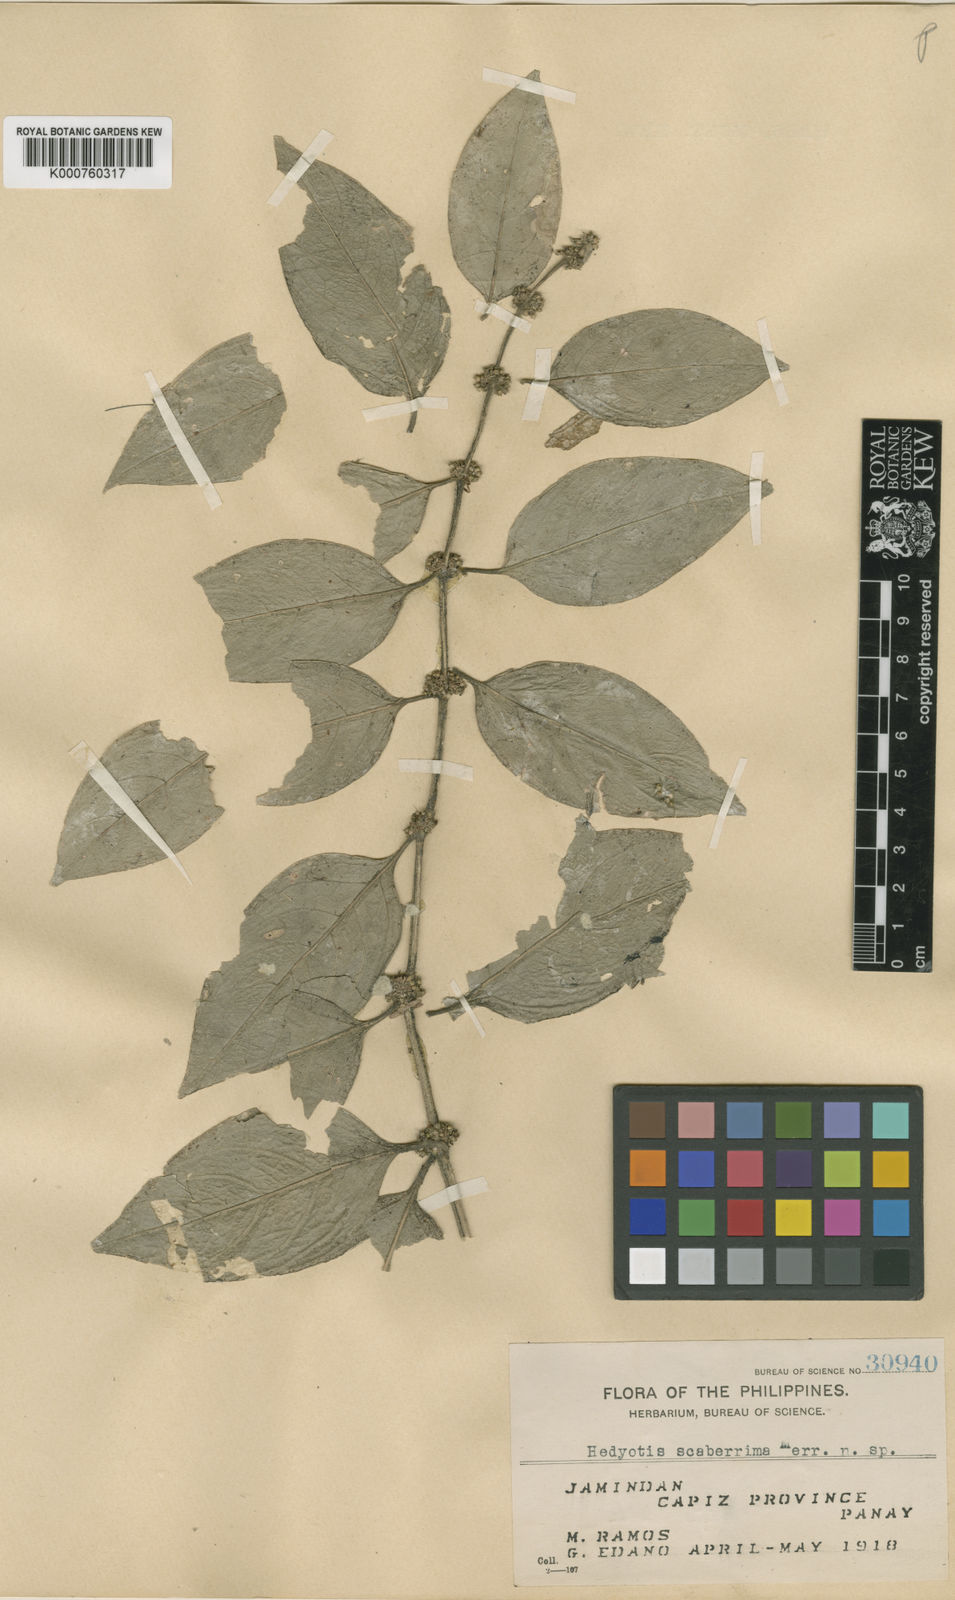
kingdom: Plantae
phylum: Tracheophyta
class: Magnoliopsida
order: Gentianales
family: Rubiaceae
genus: Hedyotis
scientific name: Hedyotis scaberrima
